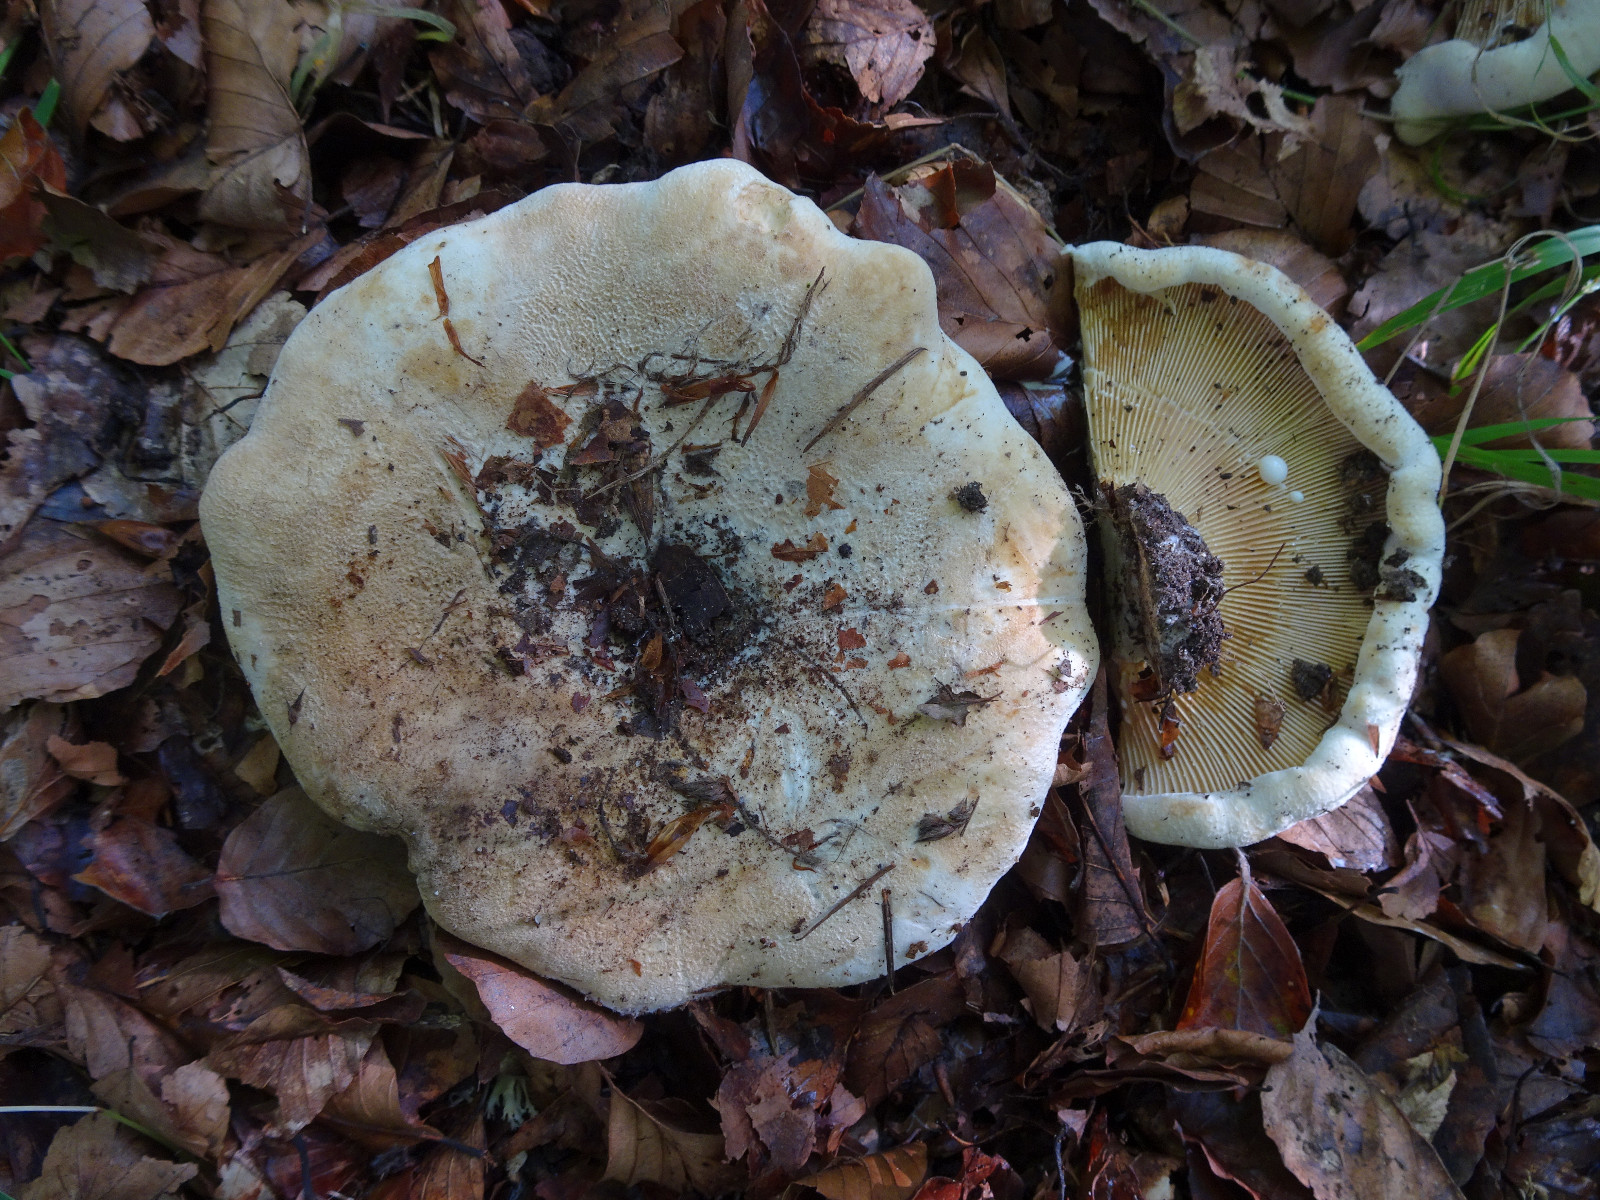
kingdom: Fungi
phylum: Basidiomycota
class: Agaricomycetes
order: Russulales
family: Russulaceae
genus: Lactifluus
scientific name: Lactifluus vellereus
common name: hvidfiltet mælkehat
